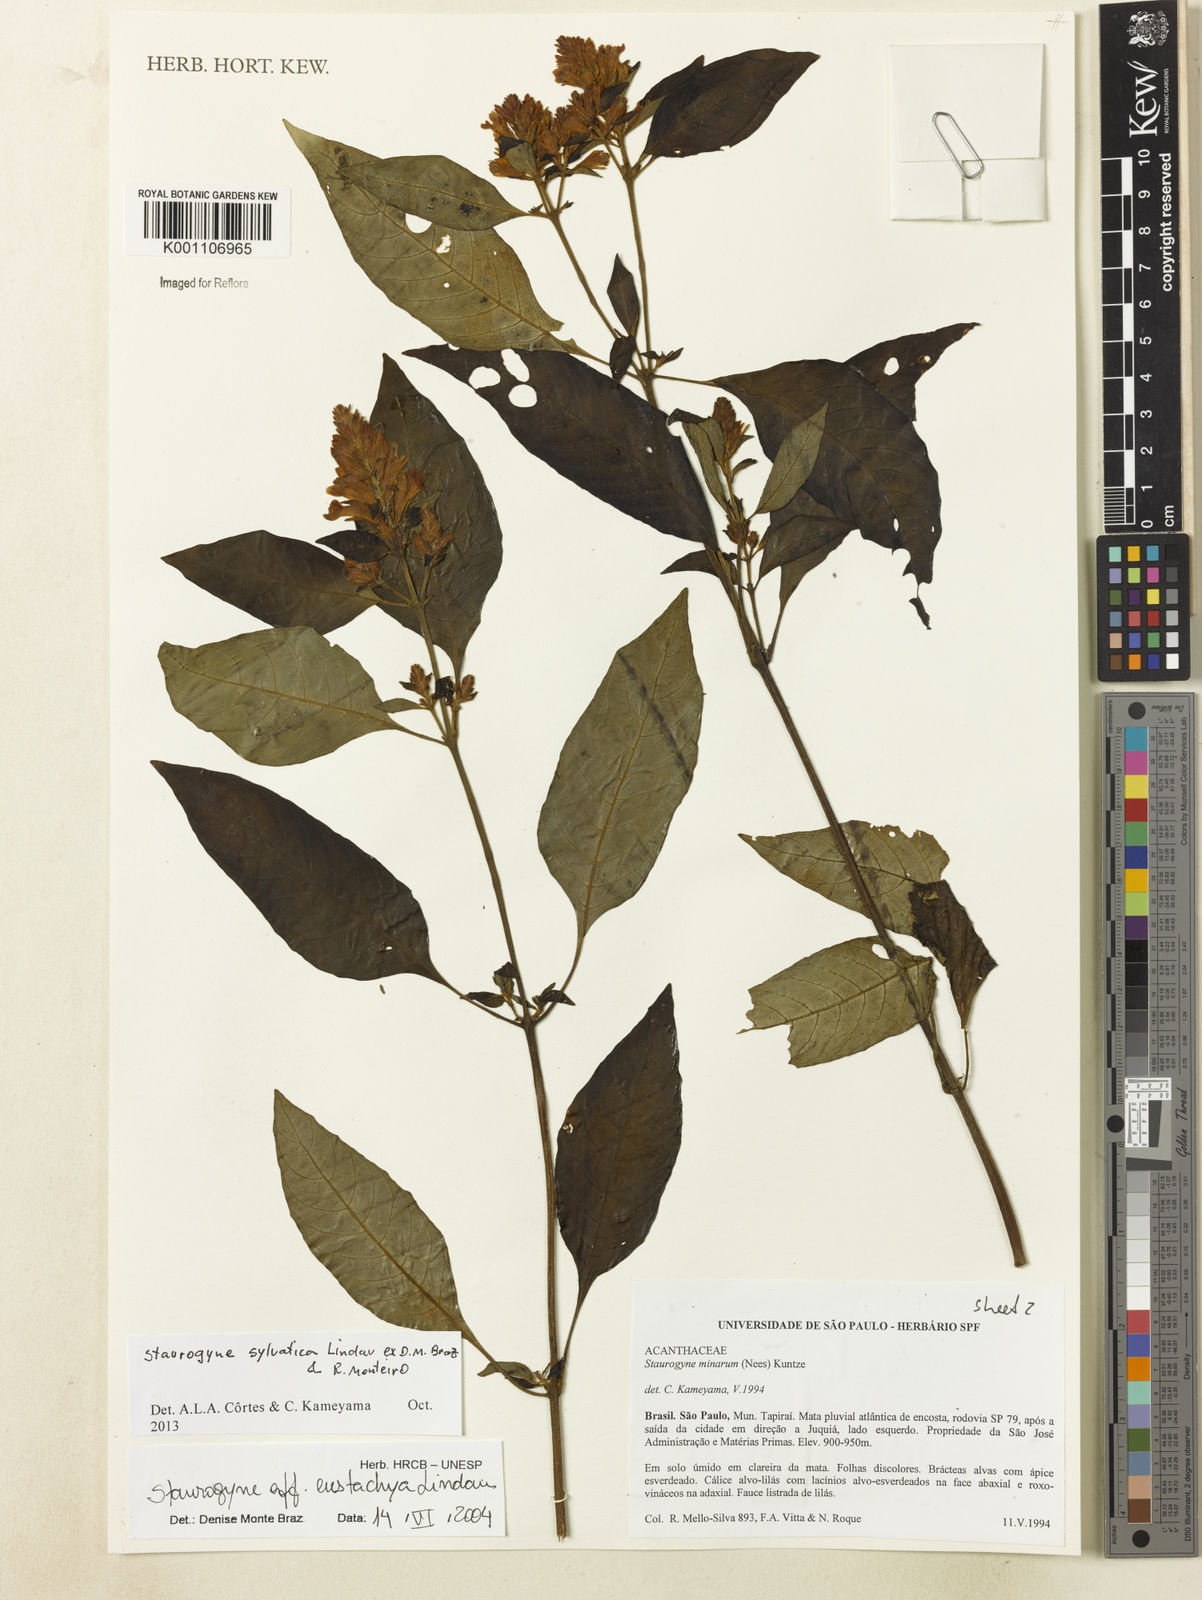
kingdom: Plantae
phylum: Tracheophyta
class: Magnoliopsida
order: Lamiales
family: Acanthaceae
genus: Staurogyne
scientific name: Staurogyne sylvatica
